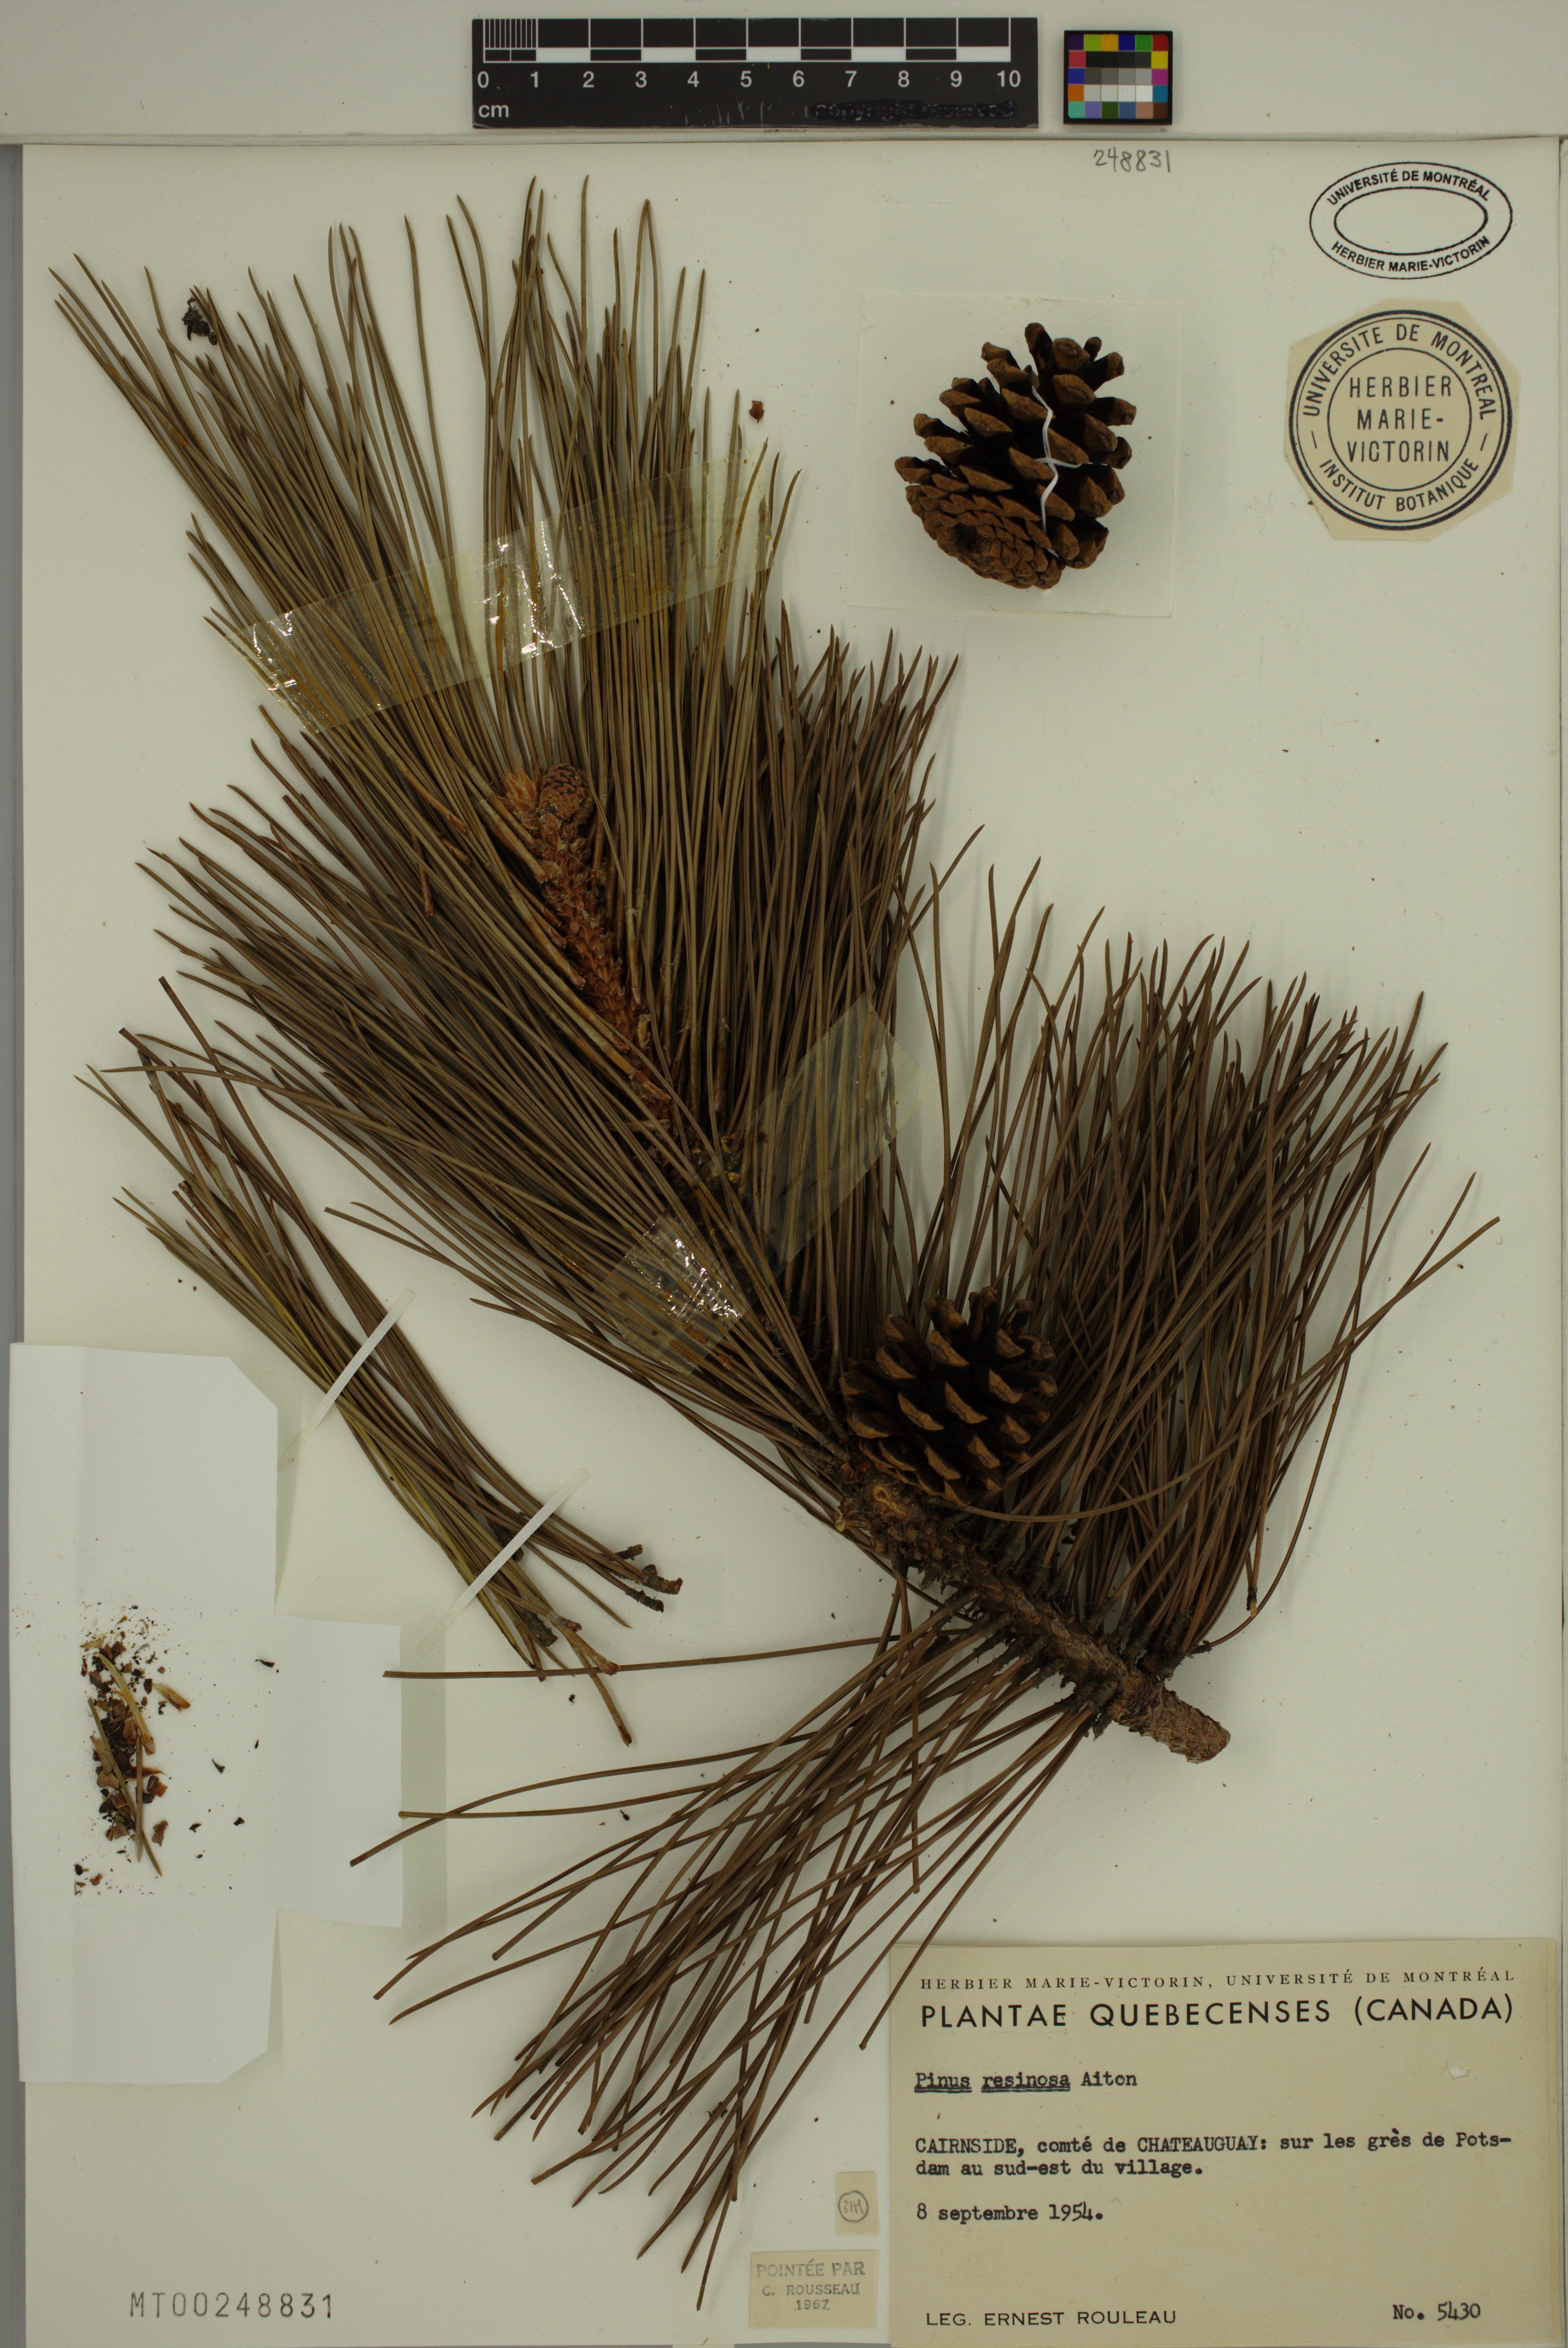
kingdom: Plantae
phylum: Tracheophyta
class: Pinopsida
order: Pinales
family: Pinaceae
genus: Pinus
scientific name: Pinus resinosa
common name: Norway pine
